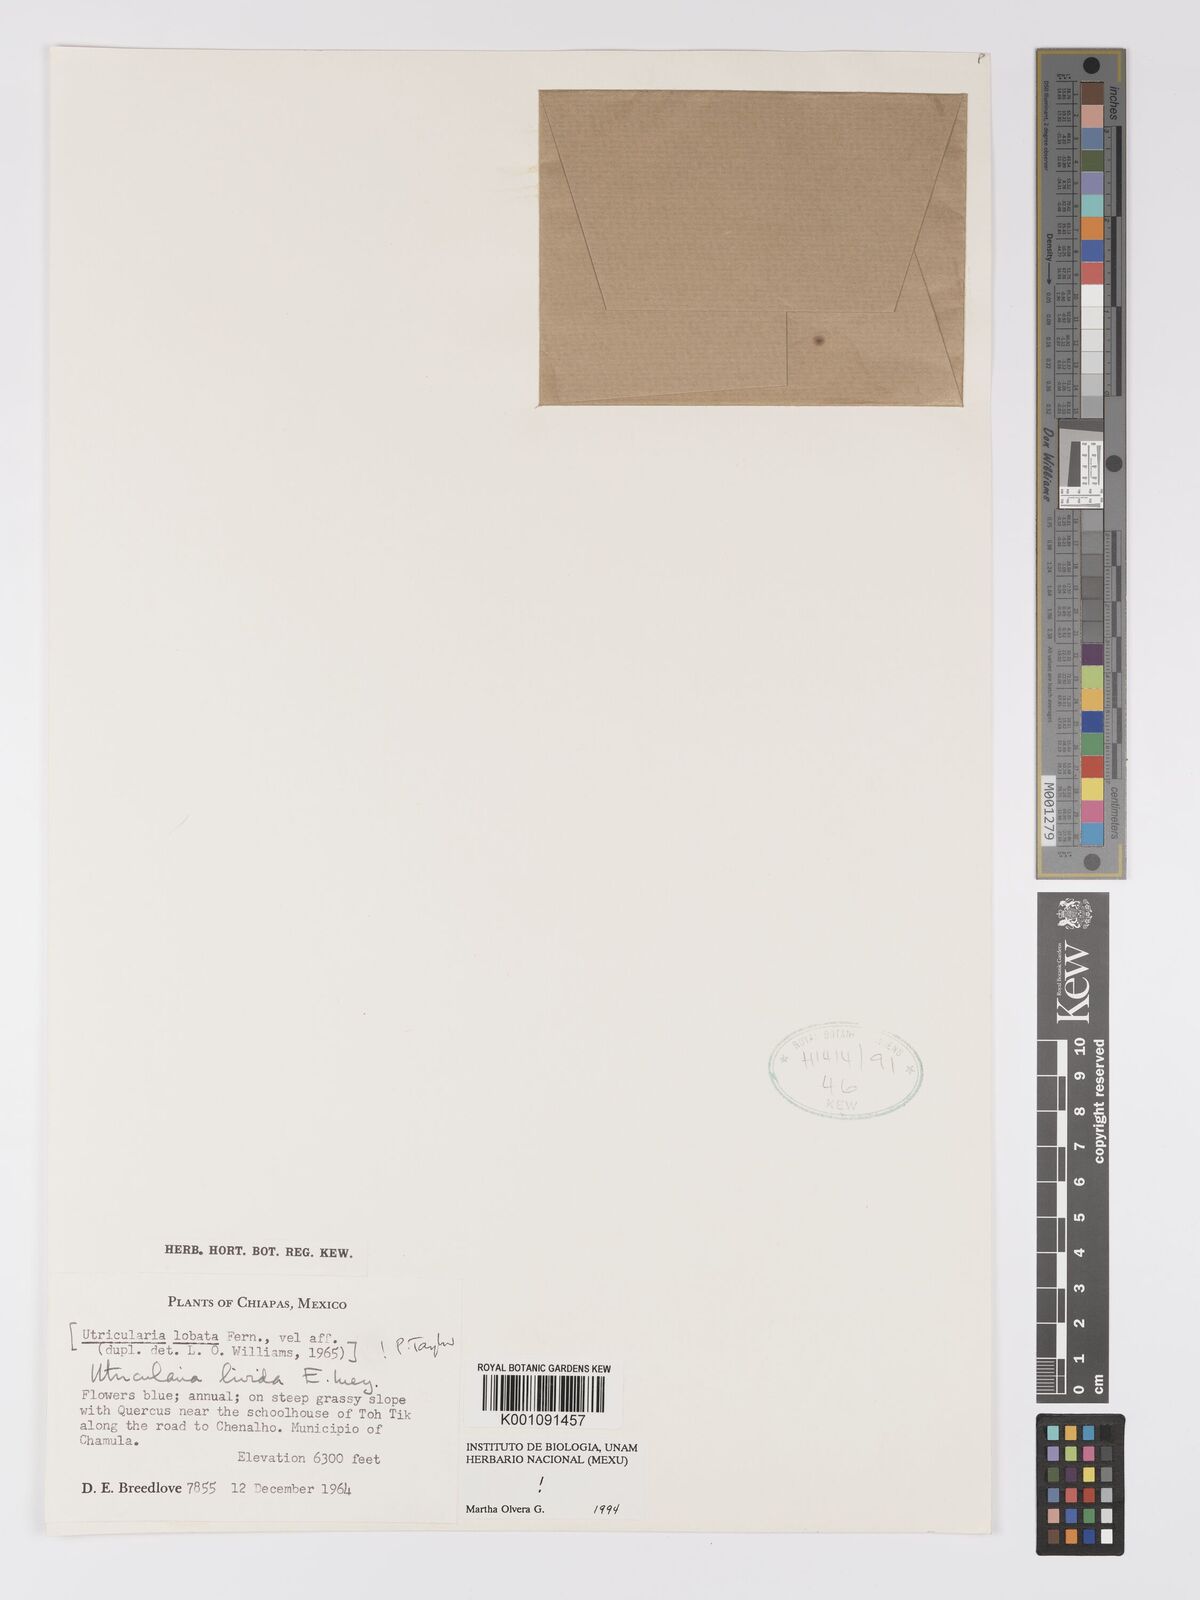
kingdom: Plantae
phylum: Tracheophyta
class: Magnoliopsida
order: Lamiales
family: Lentibulariaceae
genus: Utricularia
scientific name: Utricularia livida
